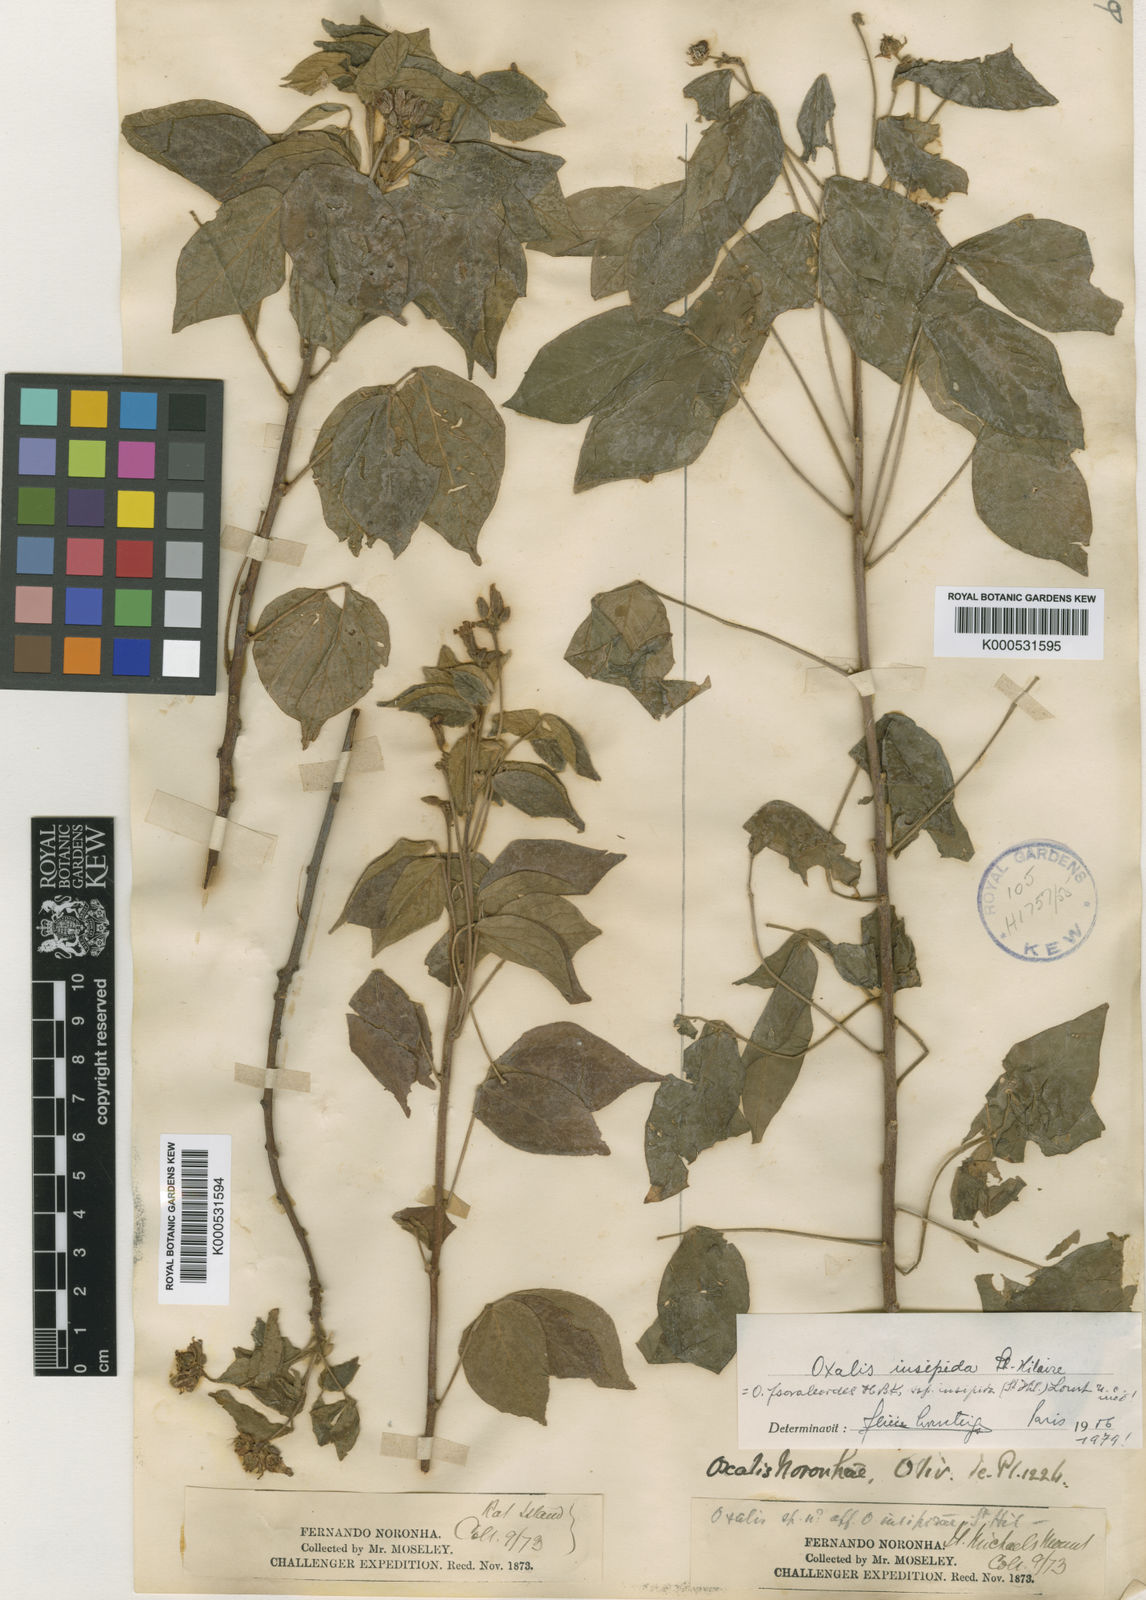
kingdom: Plantae
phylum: Tracheophyta
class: Magnoliopsida
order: Oxalidales
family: Oxalidaceae
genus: Oxalis
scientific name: Oxalis psoraleoides
